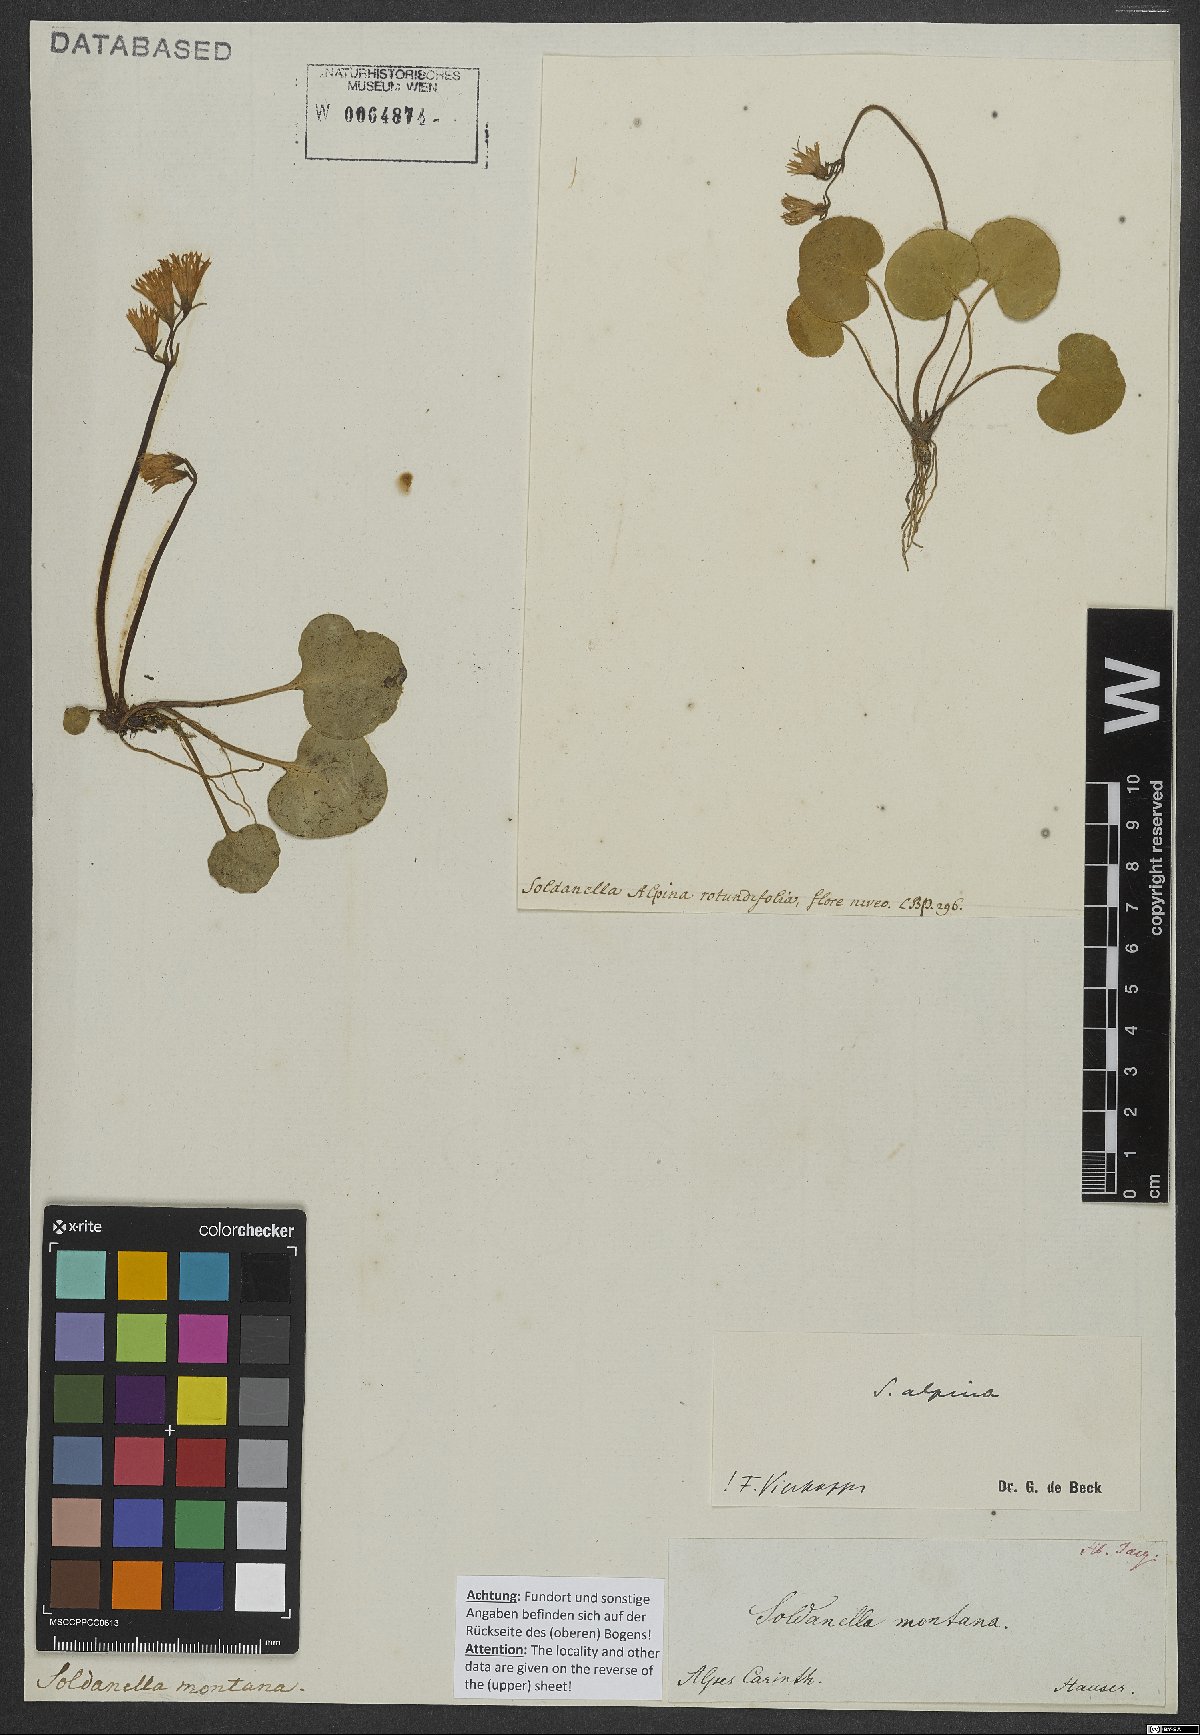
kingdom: Plantae
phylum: Tracheophyta
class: Magnoliopsida
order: Ericales
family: Primulaceae
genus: Soldanella
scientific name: Soldanella alpina
